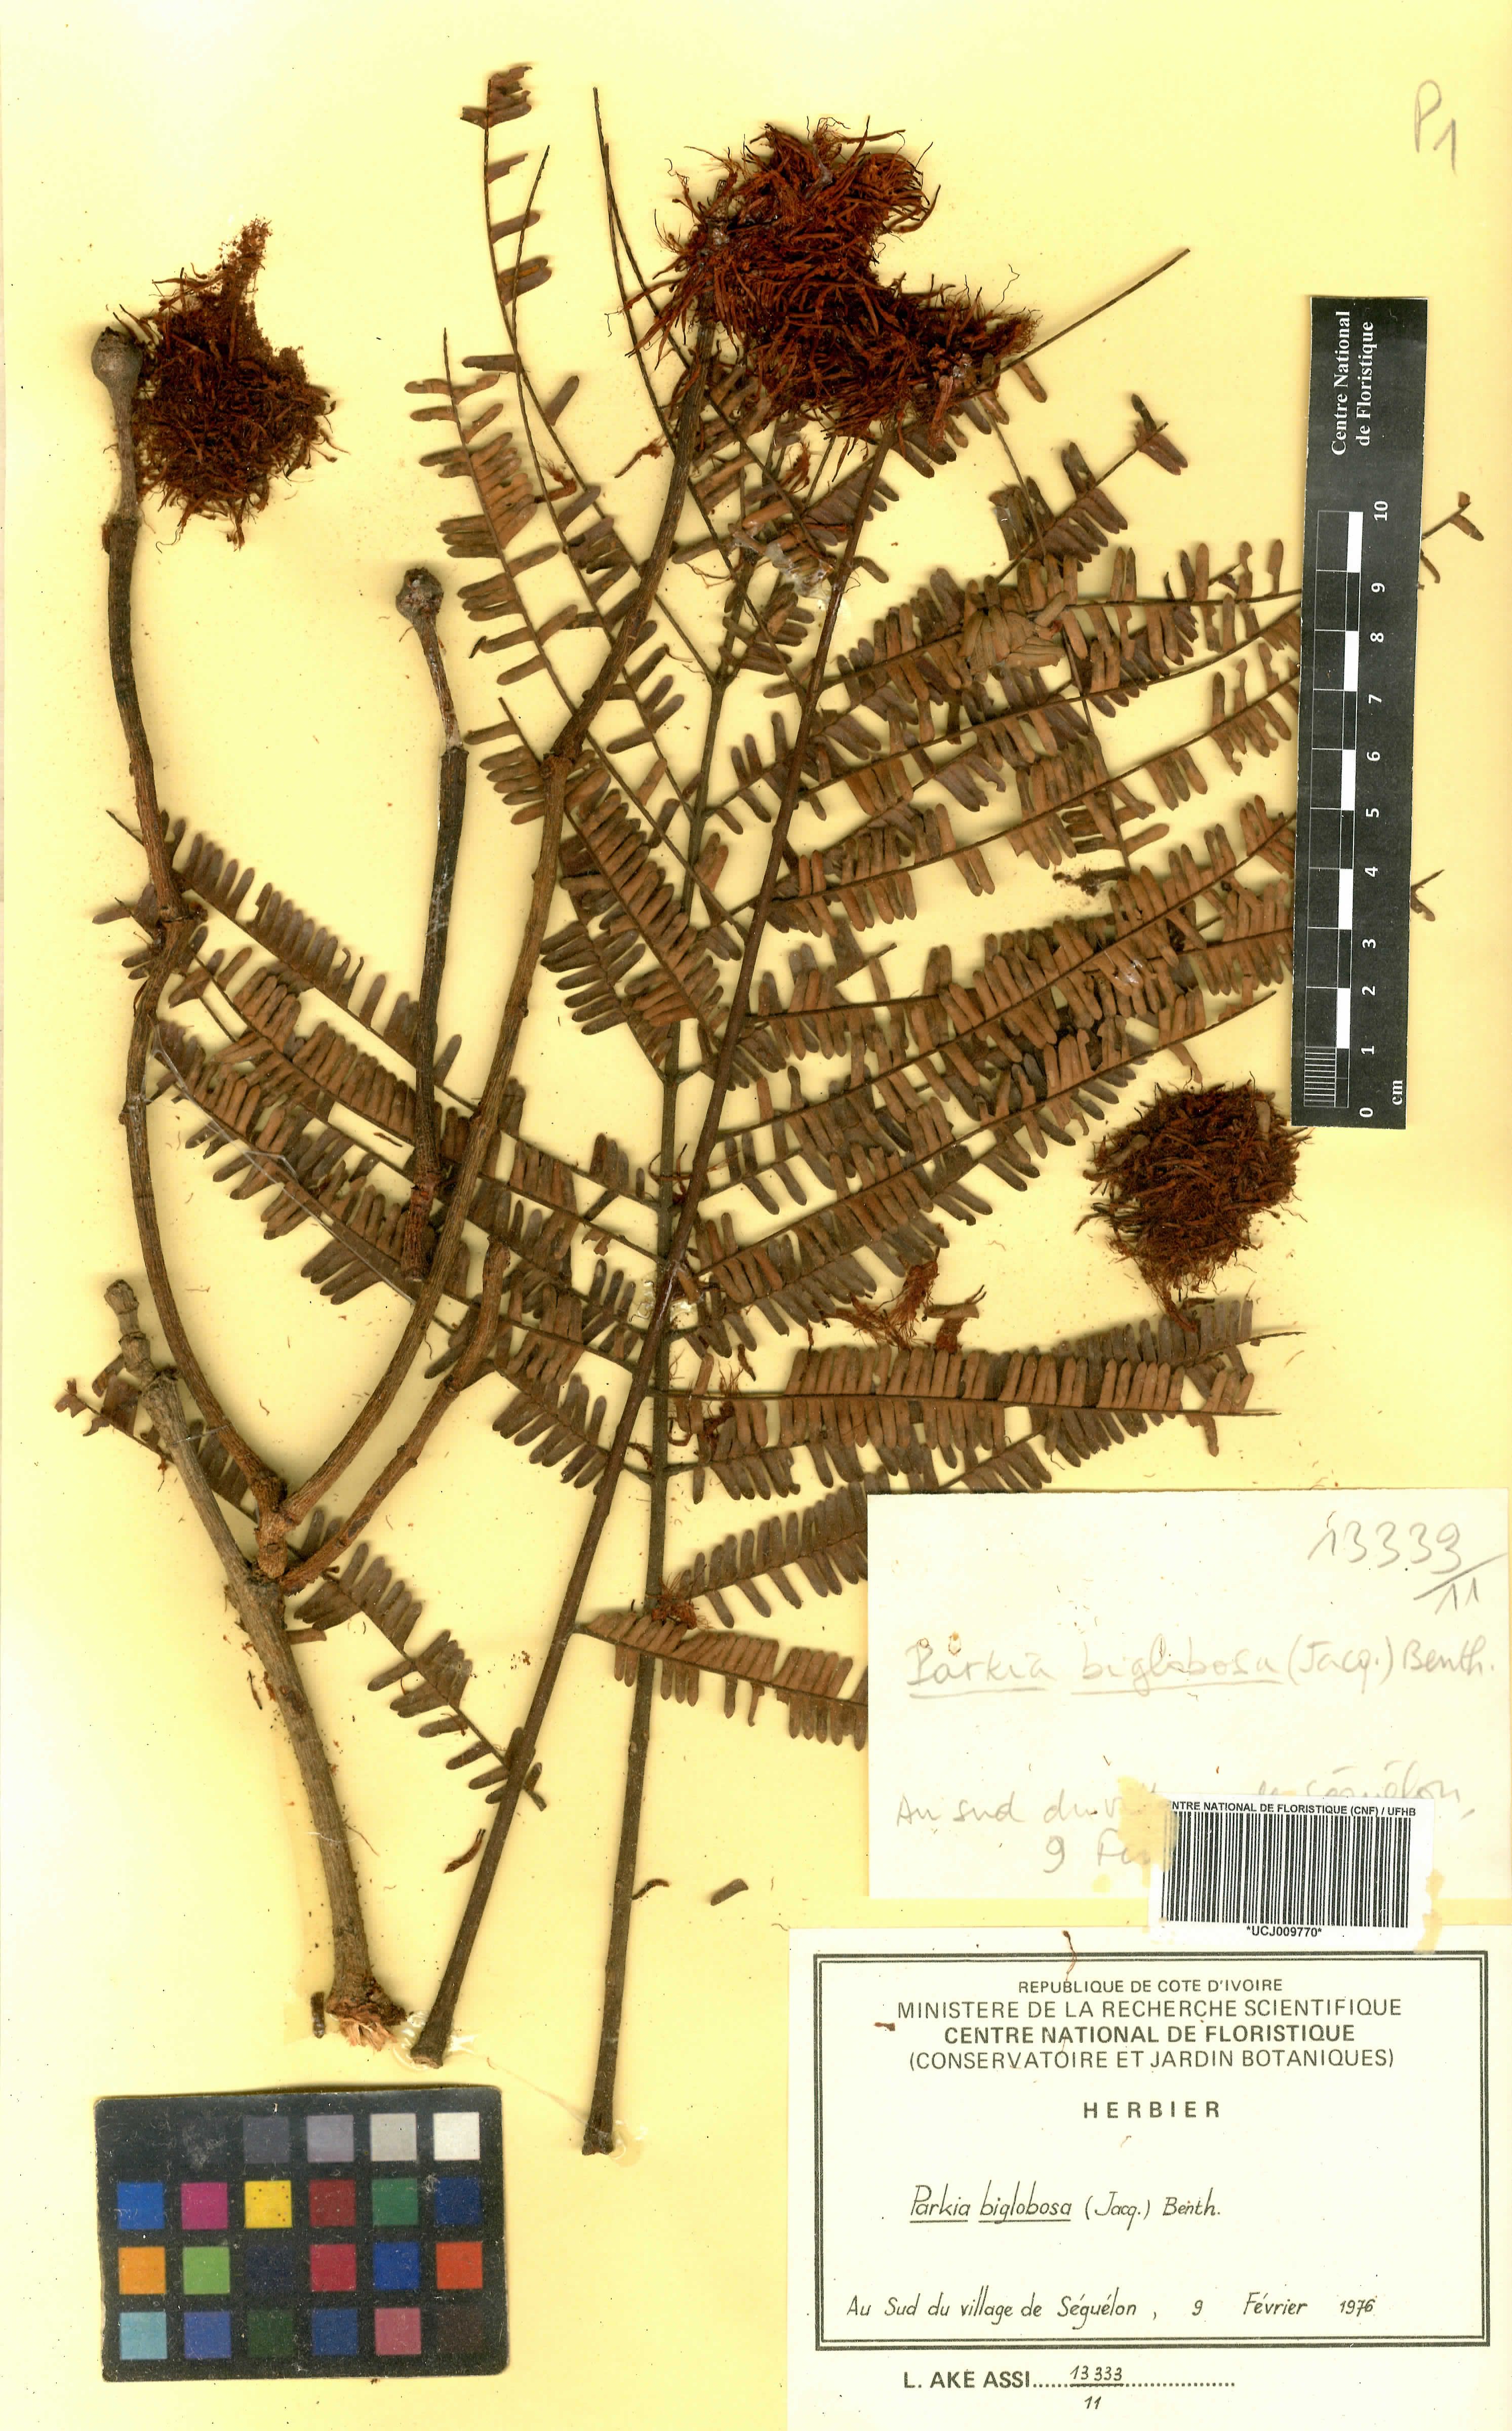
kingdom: Plantae
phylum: Tracheophyta
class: Magnoliopsida
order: Fabales
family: Fabaceae
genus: Parkia
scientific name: Parkia timoriana
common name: Legume
